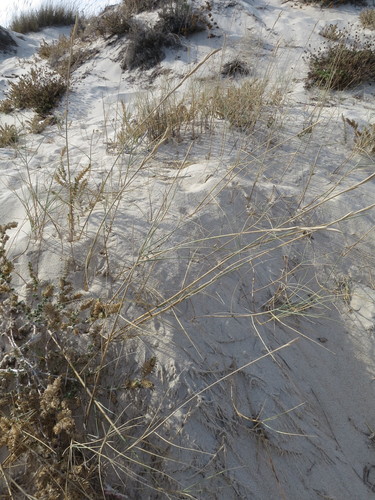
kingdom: Plantae
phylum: Tracheophyta
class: Liliopsida
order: Poales
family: Poaceae
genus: Thinopyrum
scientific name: Thinopyrum junceum
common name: Russian wheatgrass
